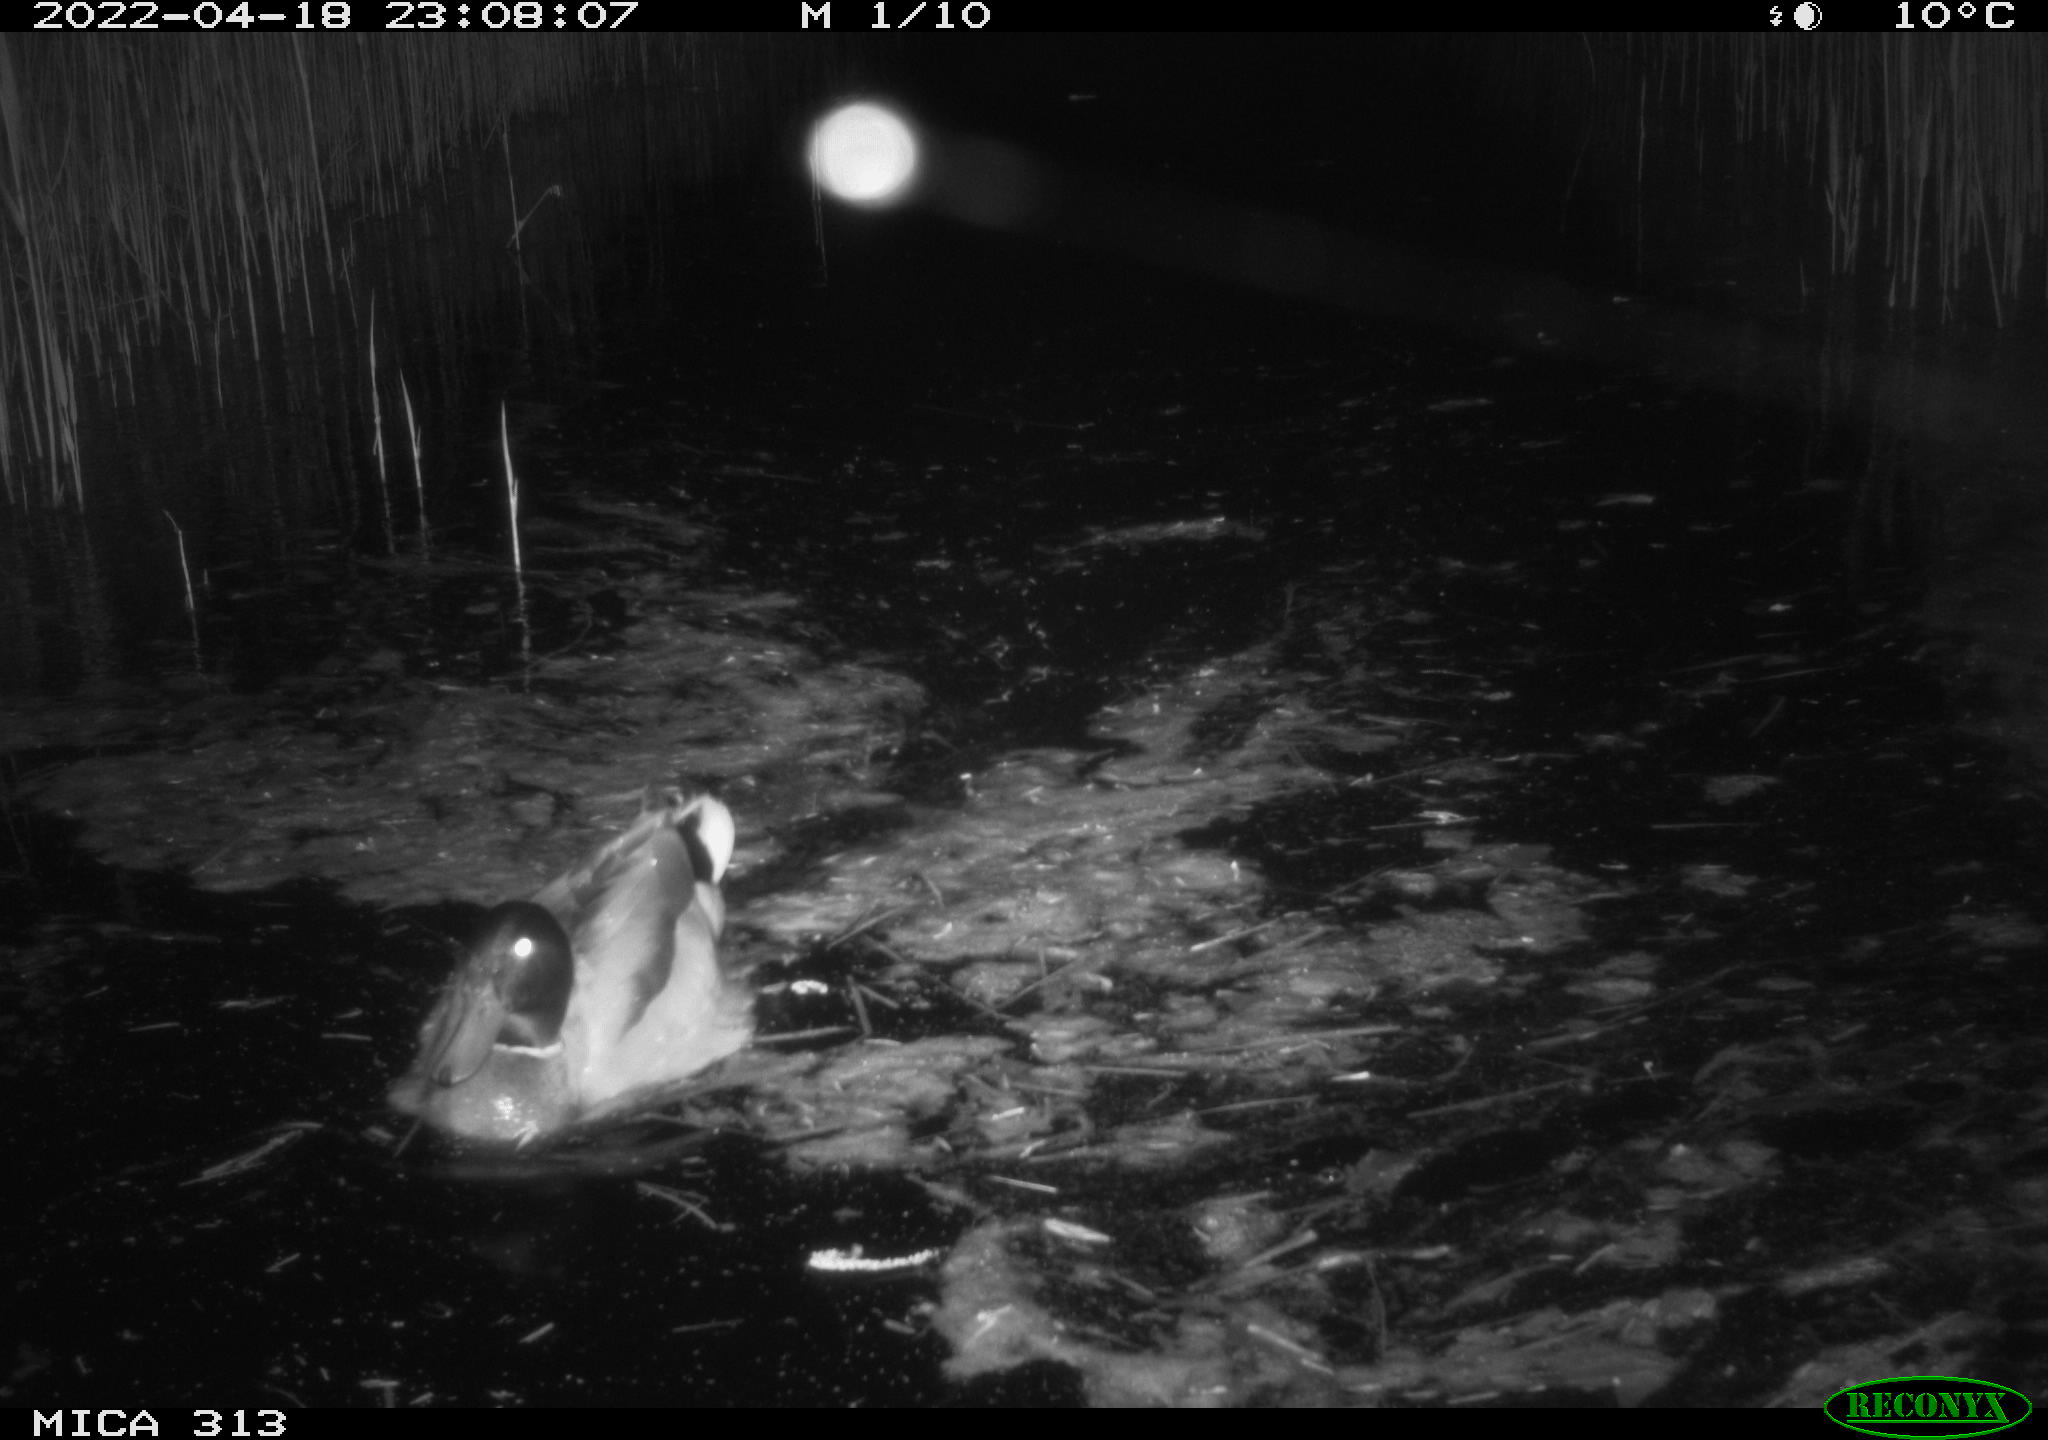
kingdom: Animalia
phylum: Chordata
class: Aves
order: Anseriformes
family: Anatidae
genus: Anas
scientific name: Anas platyrhynchos
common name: Mallard
